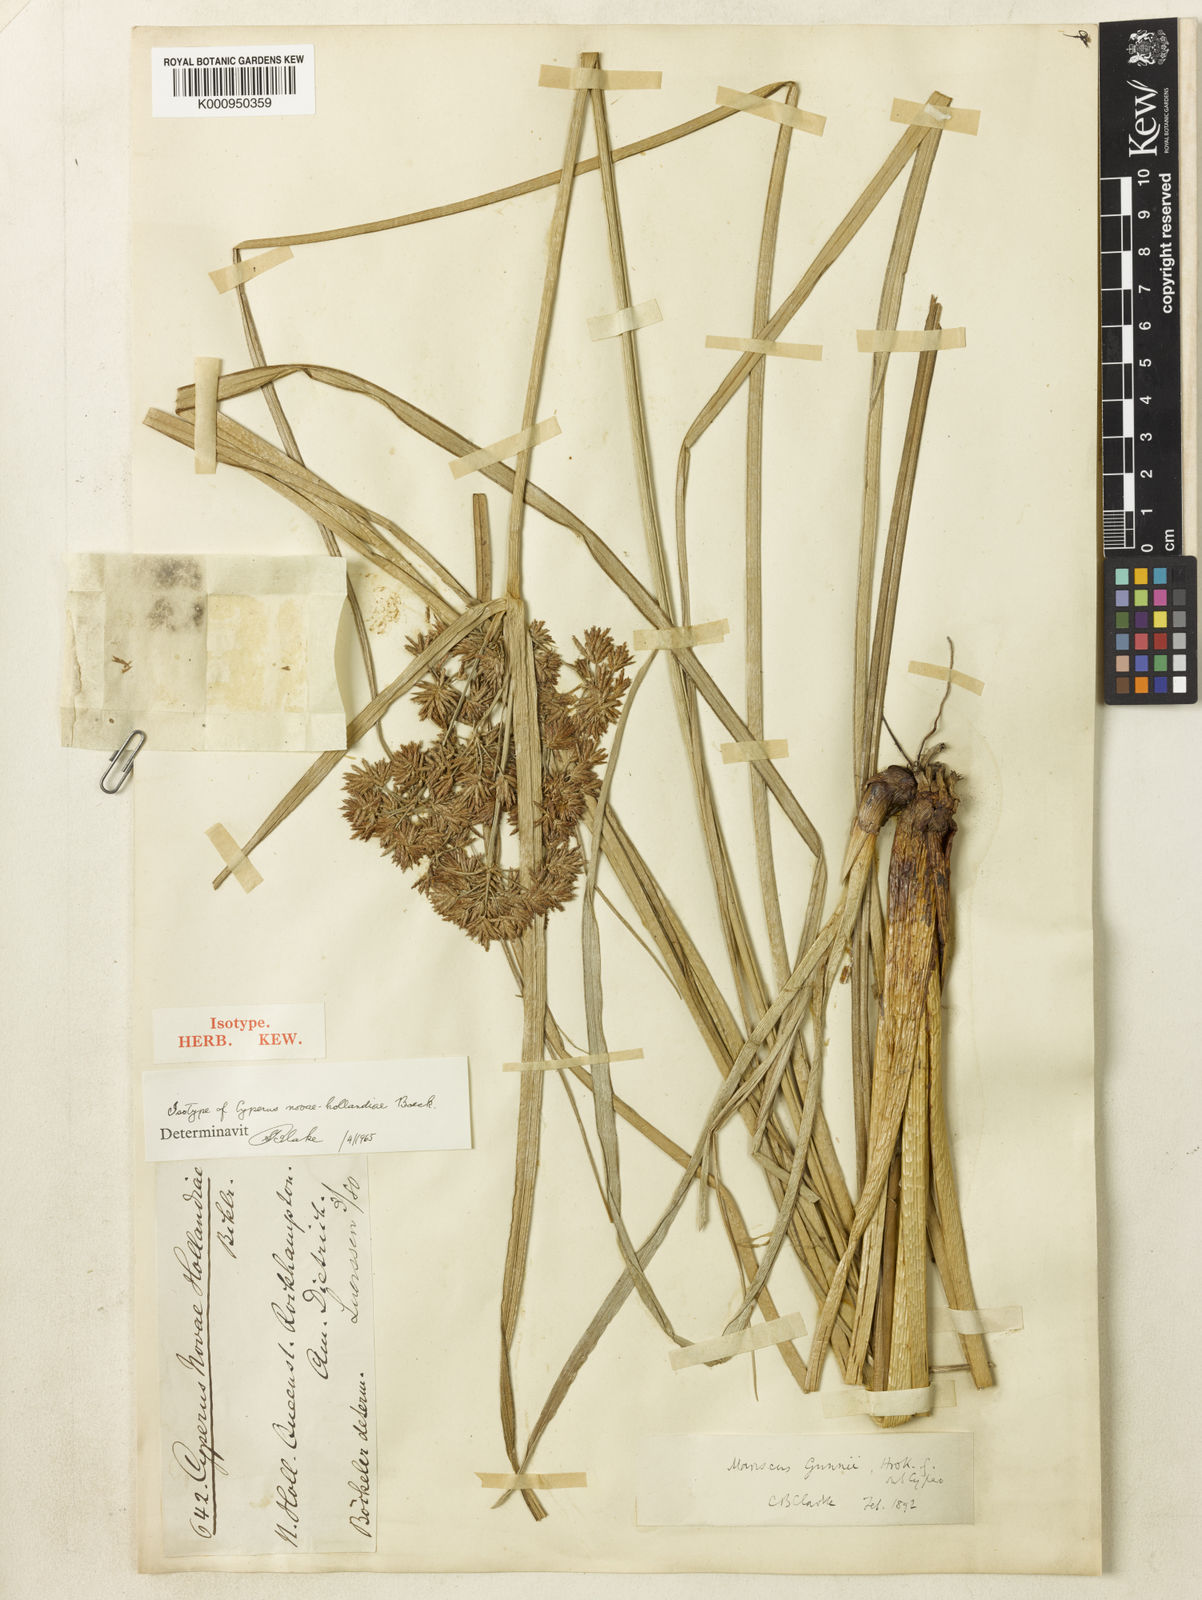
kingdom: Plantae
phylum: Tracheophyta
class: Liliopsida
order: Poales
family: Cyperaceae
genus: Cyperus
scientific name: Cyperus gunnii
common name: Flecked flat-sedge
